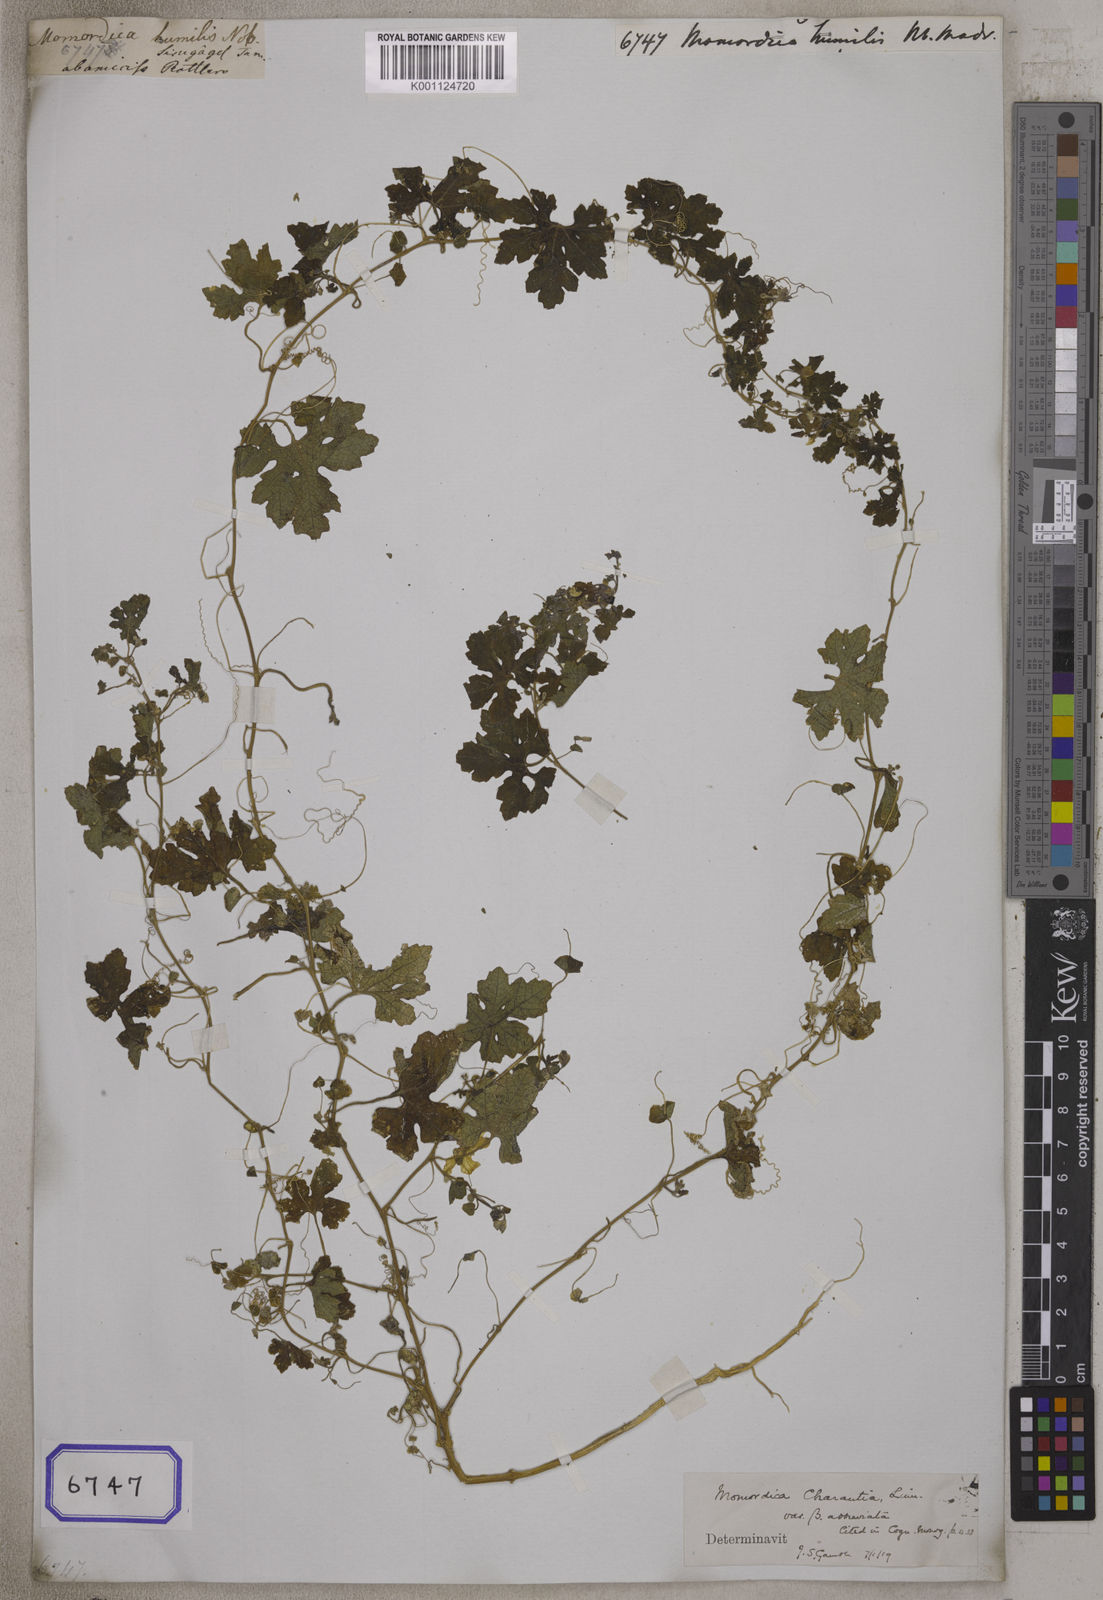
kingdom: Plantae
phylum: Tracheophyta
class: Magnoliopsida
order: Cucurbitales
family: Cucurbitaceae
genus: Momordica
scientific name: Momordica charantia
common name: Balsampear
